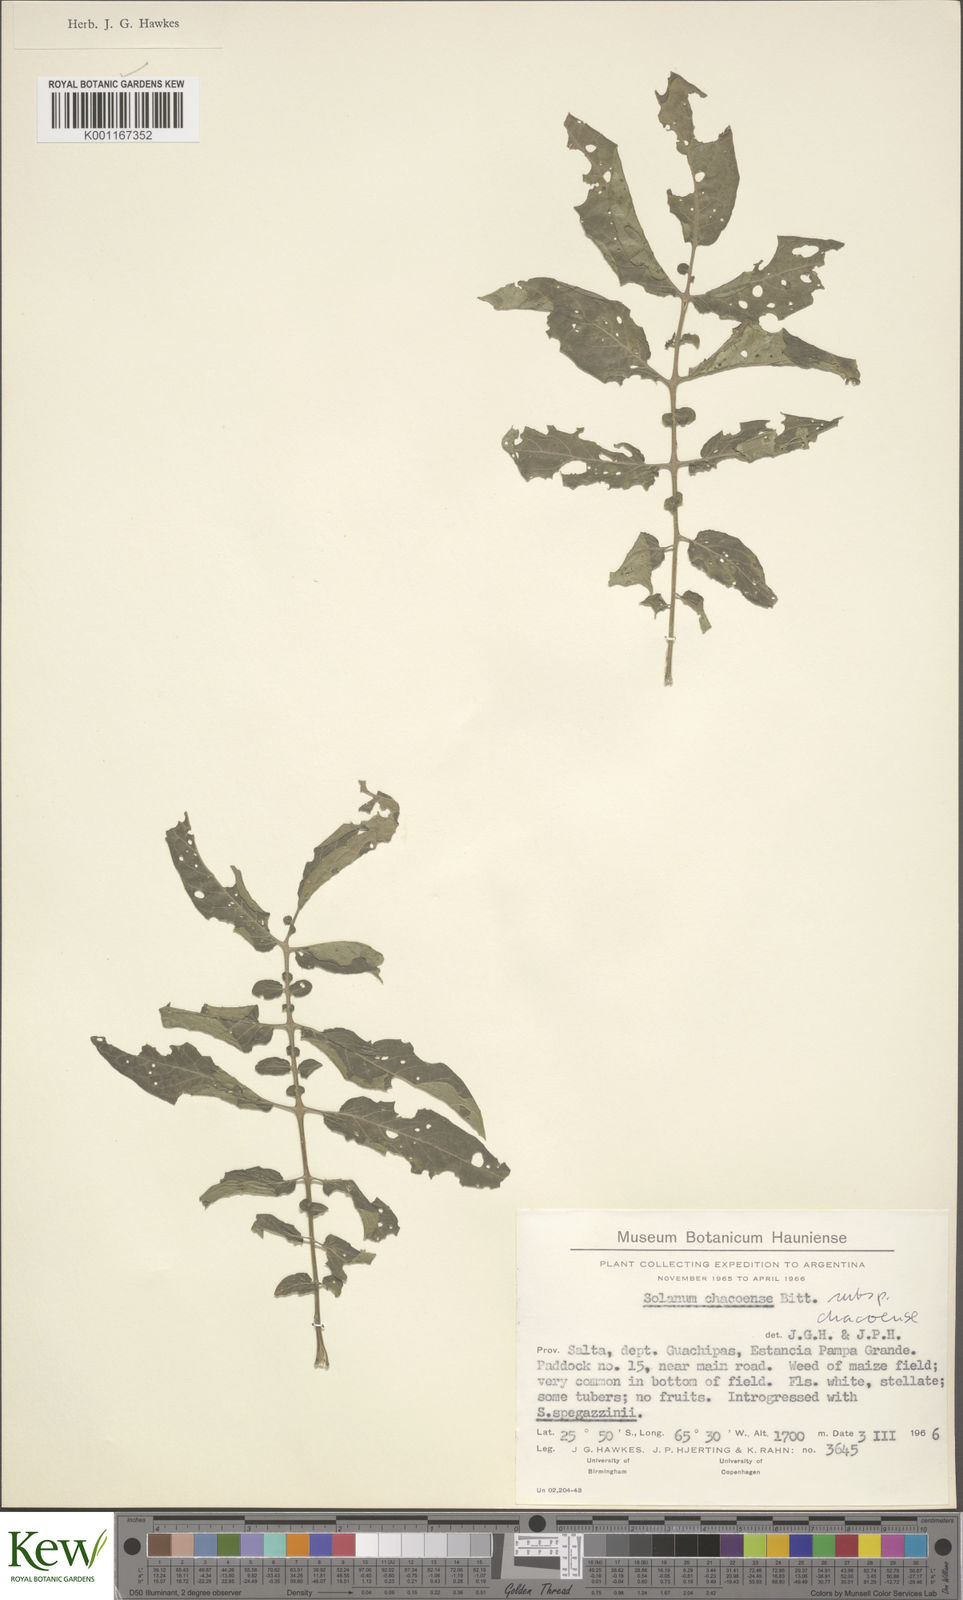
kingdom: Plantae
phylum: Tracheophyta
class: Magnoliopsida
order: Solanales
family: Solanaceae
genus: Solanum
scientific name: Solanum chacoense
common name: Chaco potato
